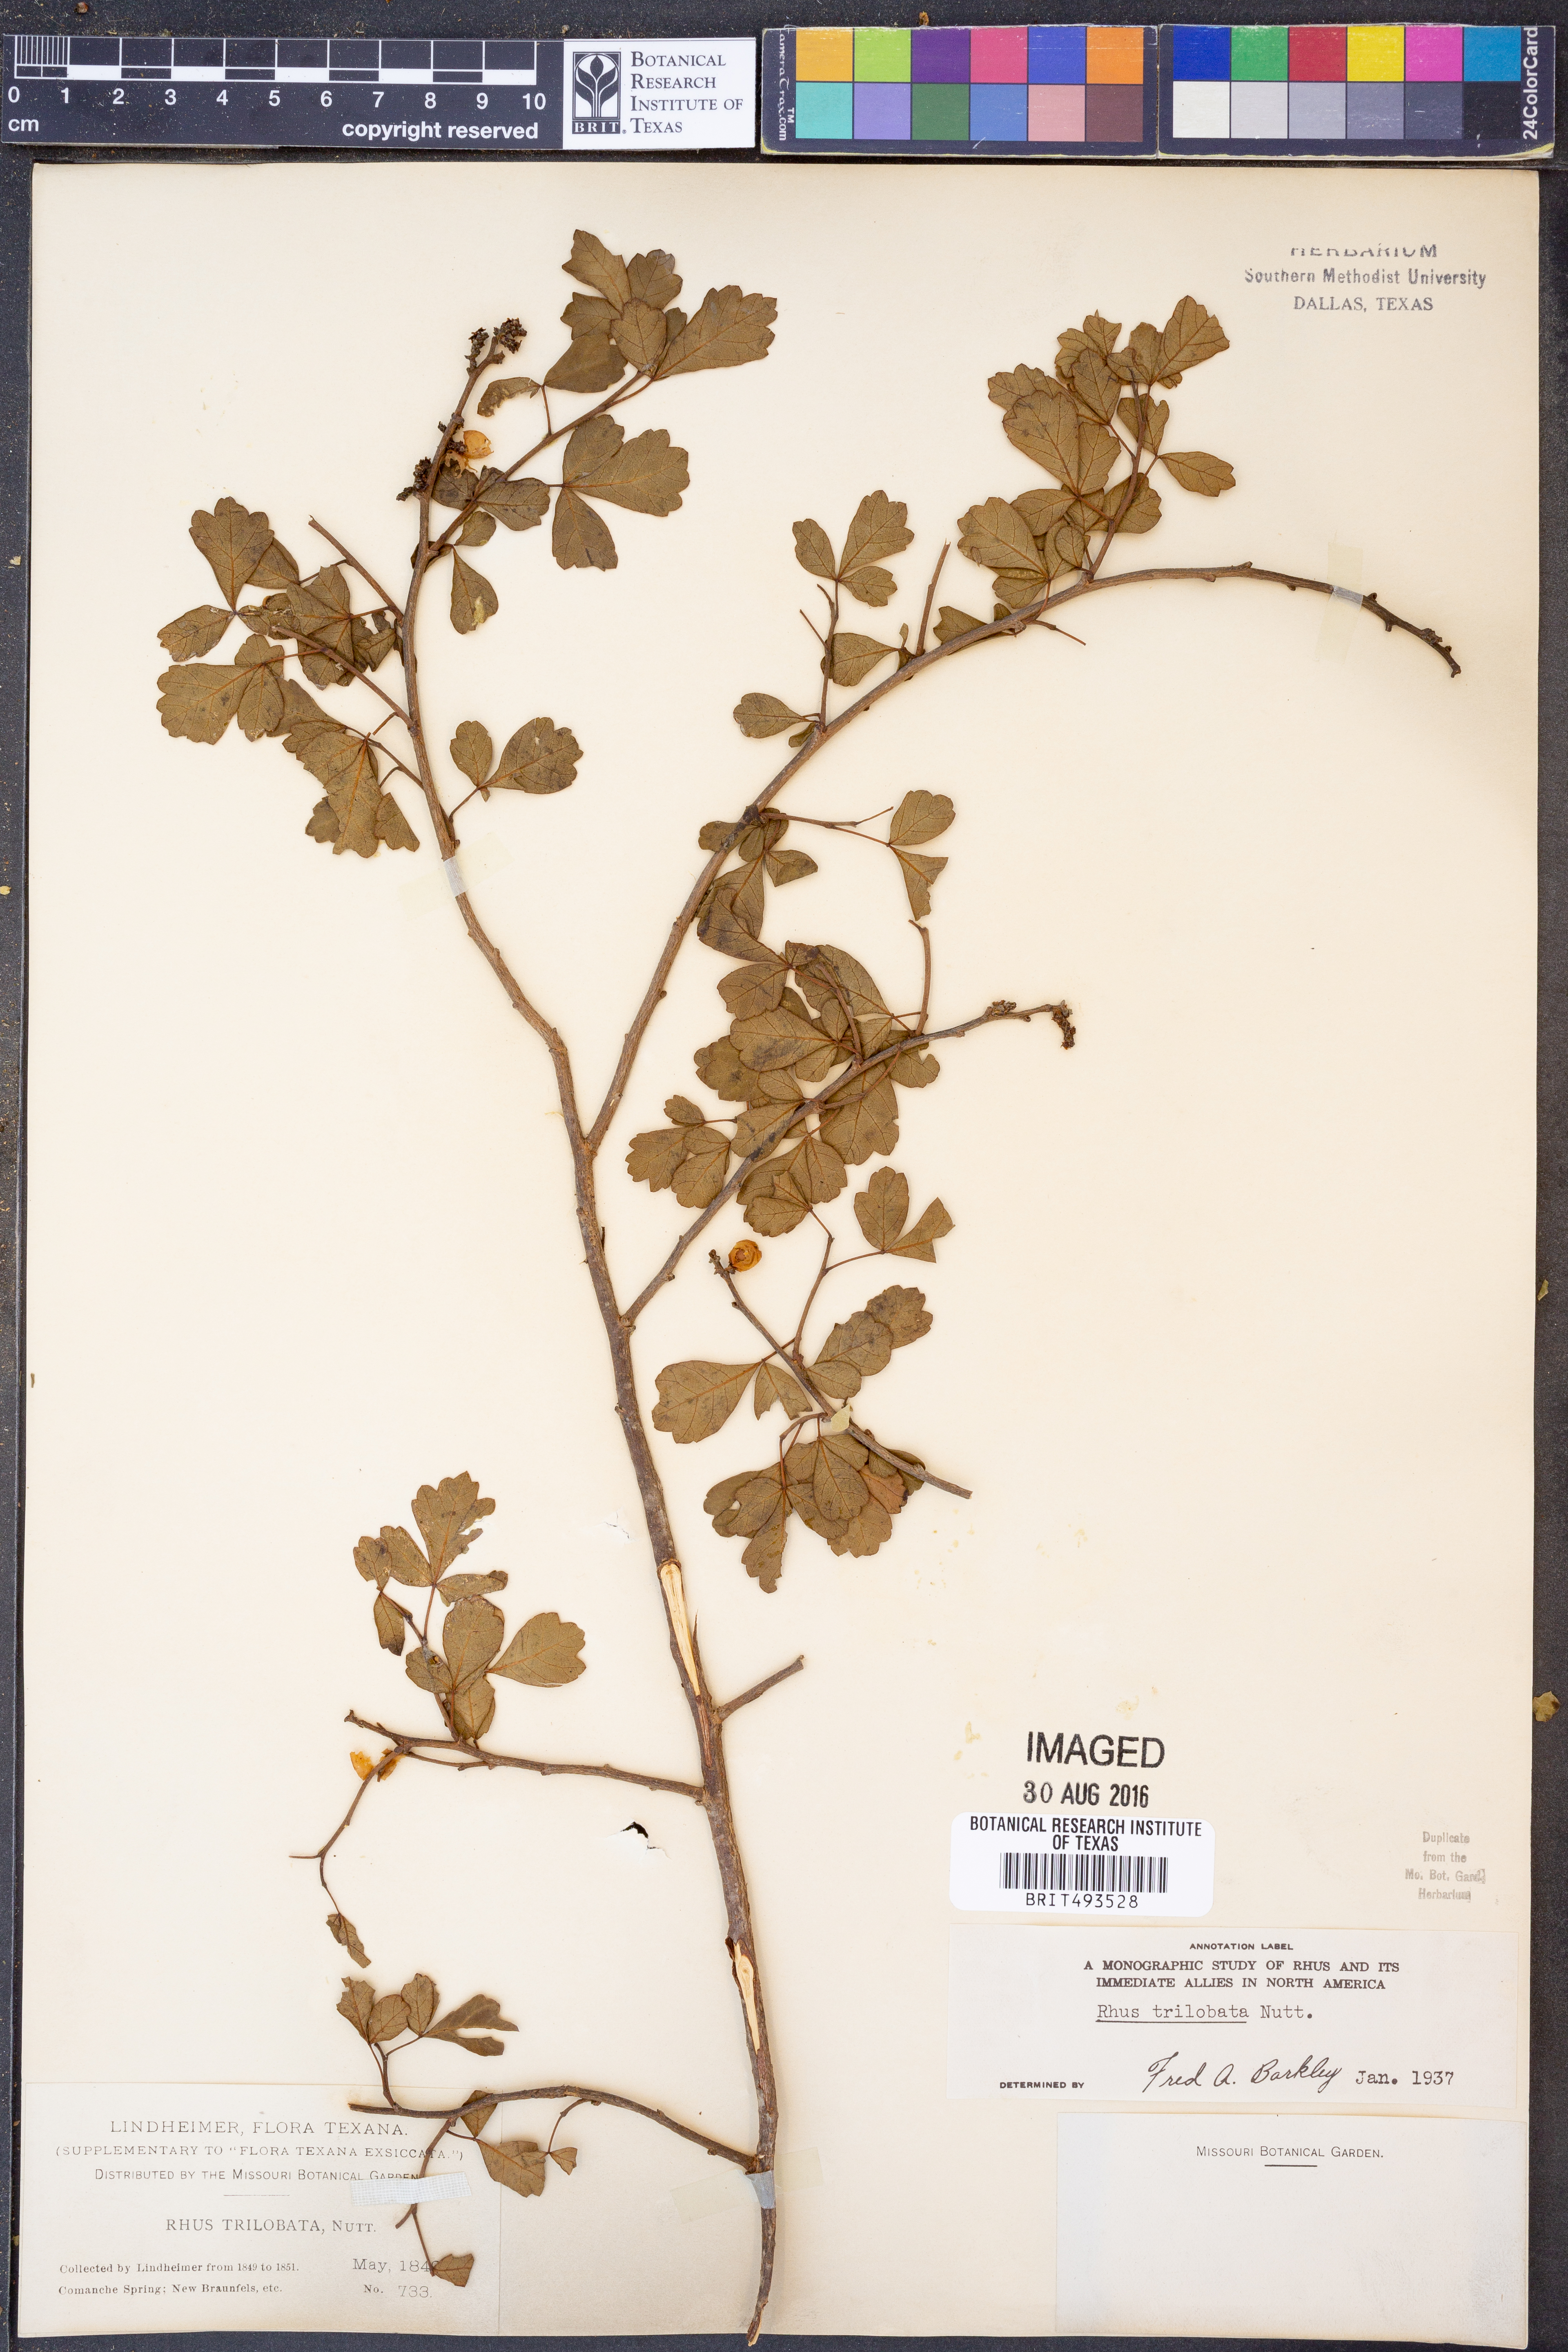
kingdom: Plantae
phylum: Tracheophyta
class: Magnoliopsida
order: Sapindales
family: Anacardiaceae
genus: Rhus
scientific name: Rhus trilobata
